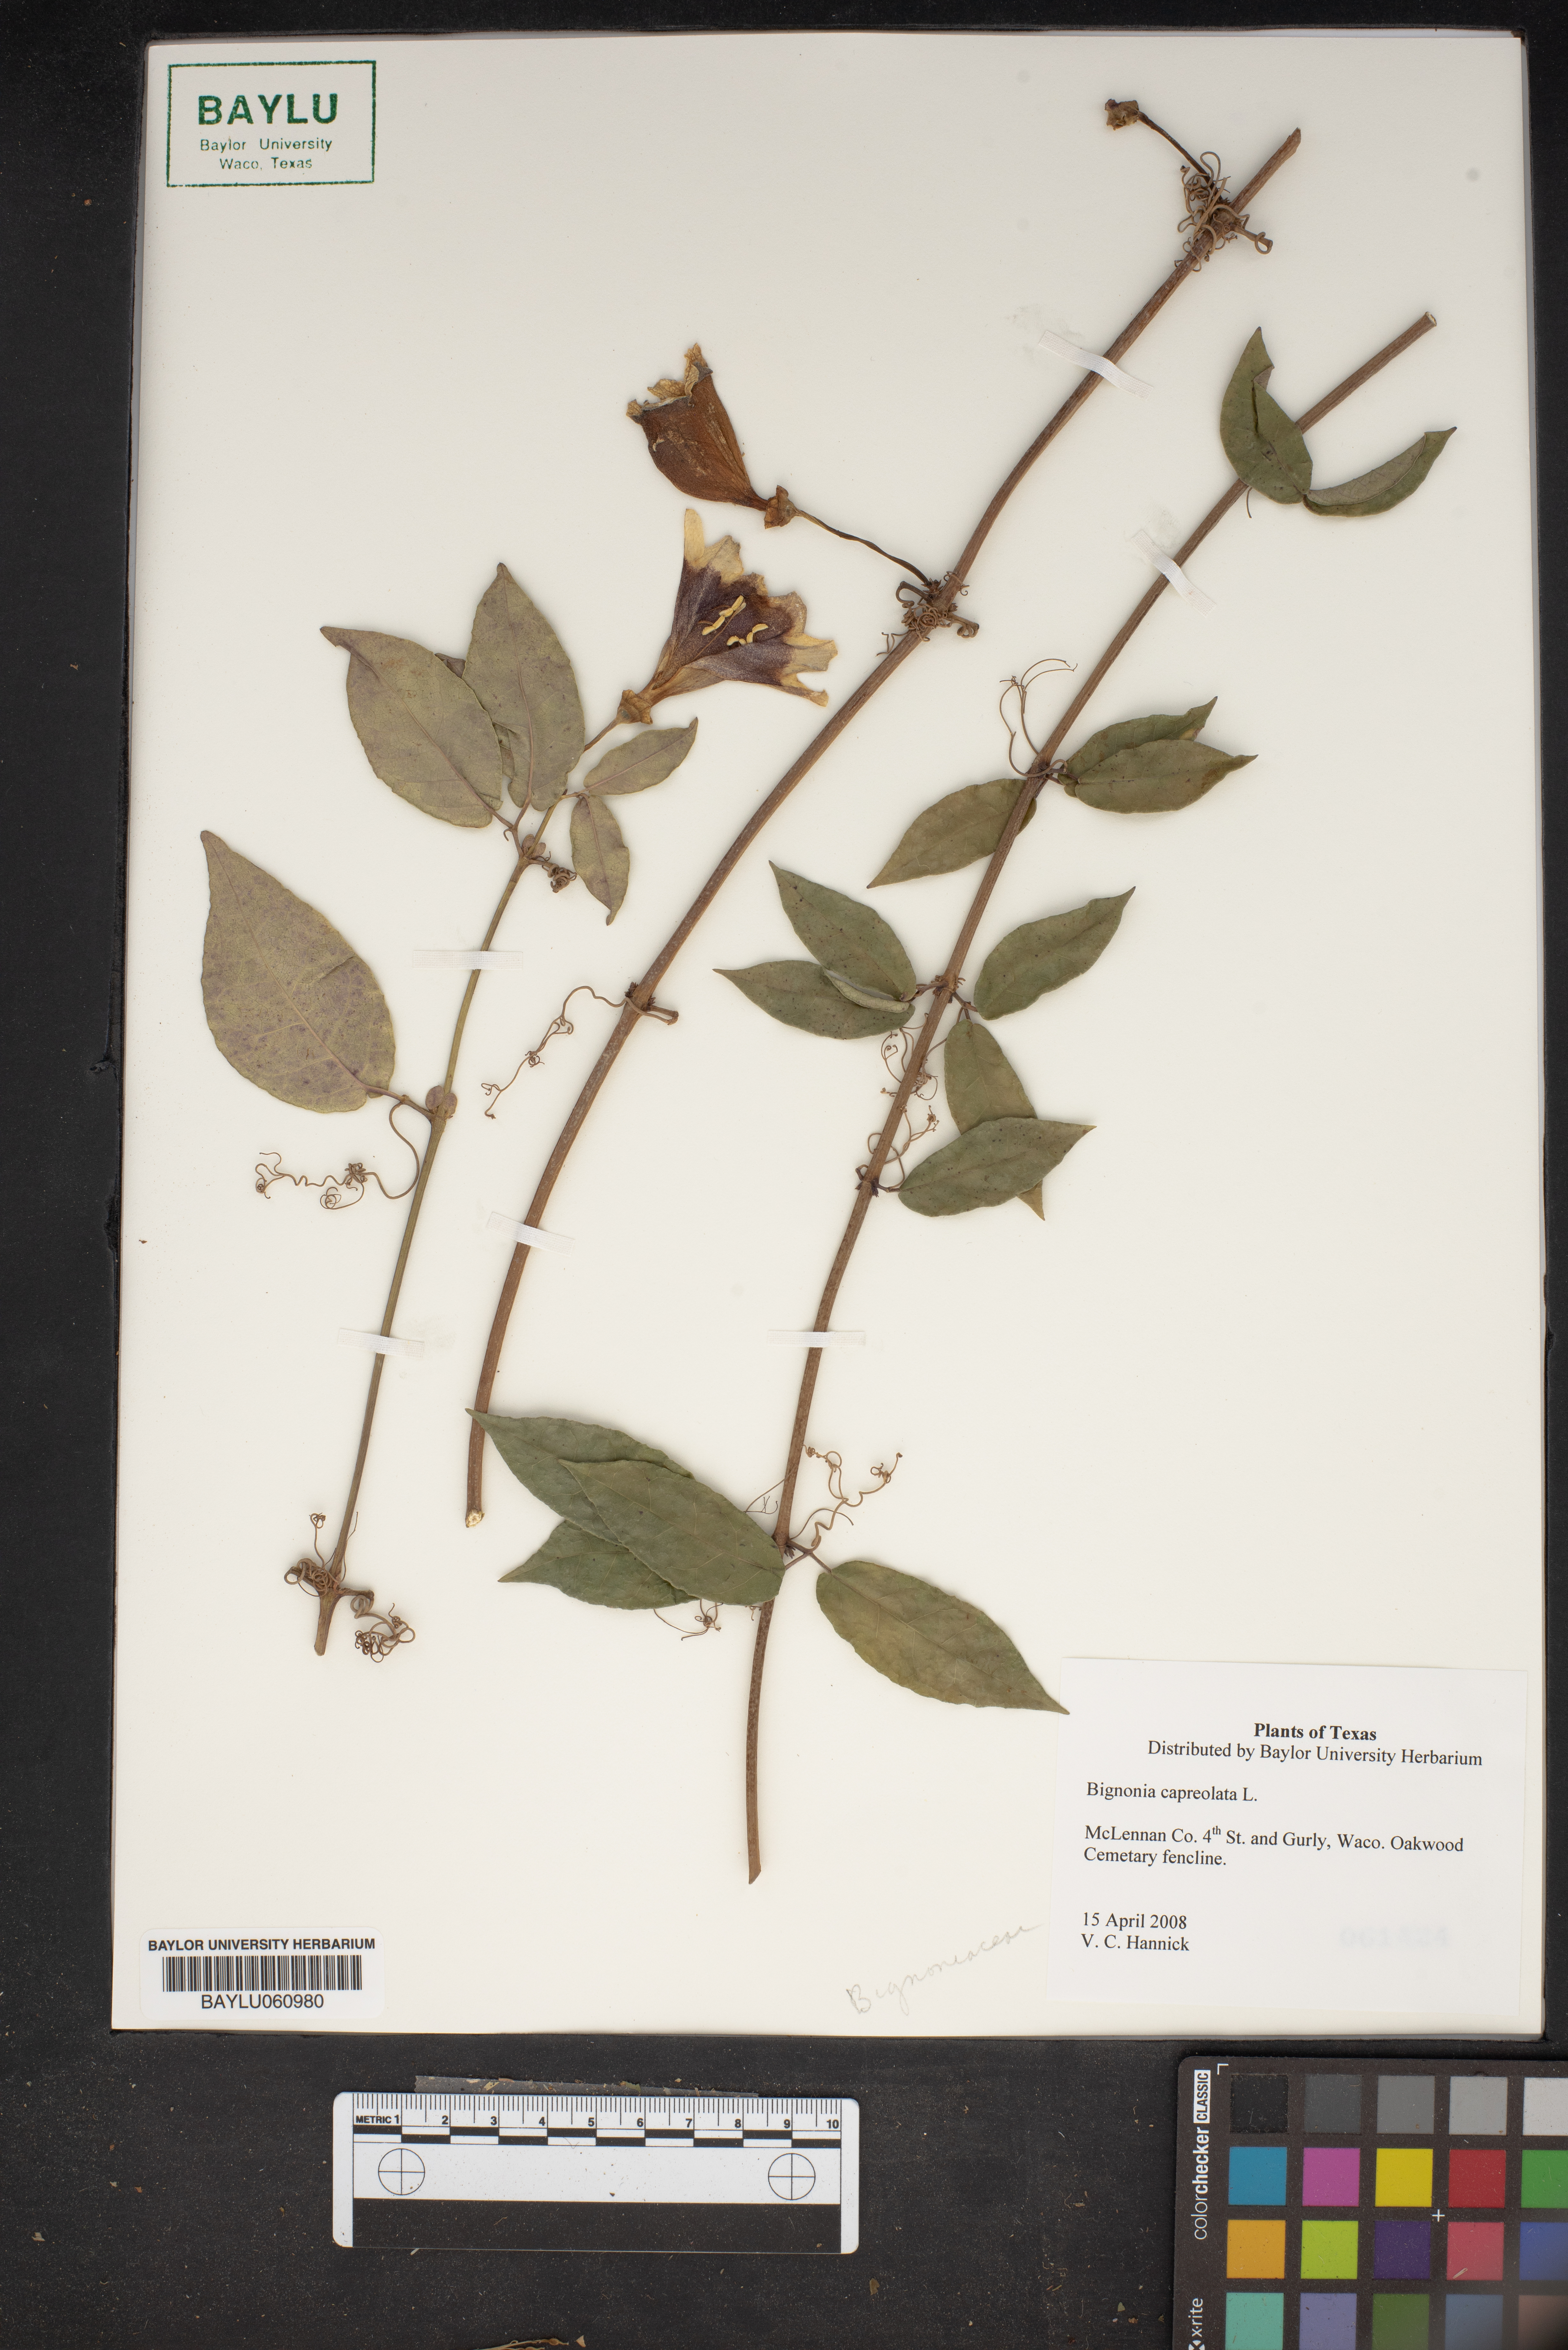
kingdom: Plantae
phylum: Tracheophyta
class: Magnoliopsida
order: Lamiales
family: Bignoniaceae
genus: Bignonia
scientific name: Bignonia capreolata
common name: Crossvine
